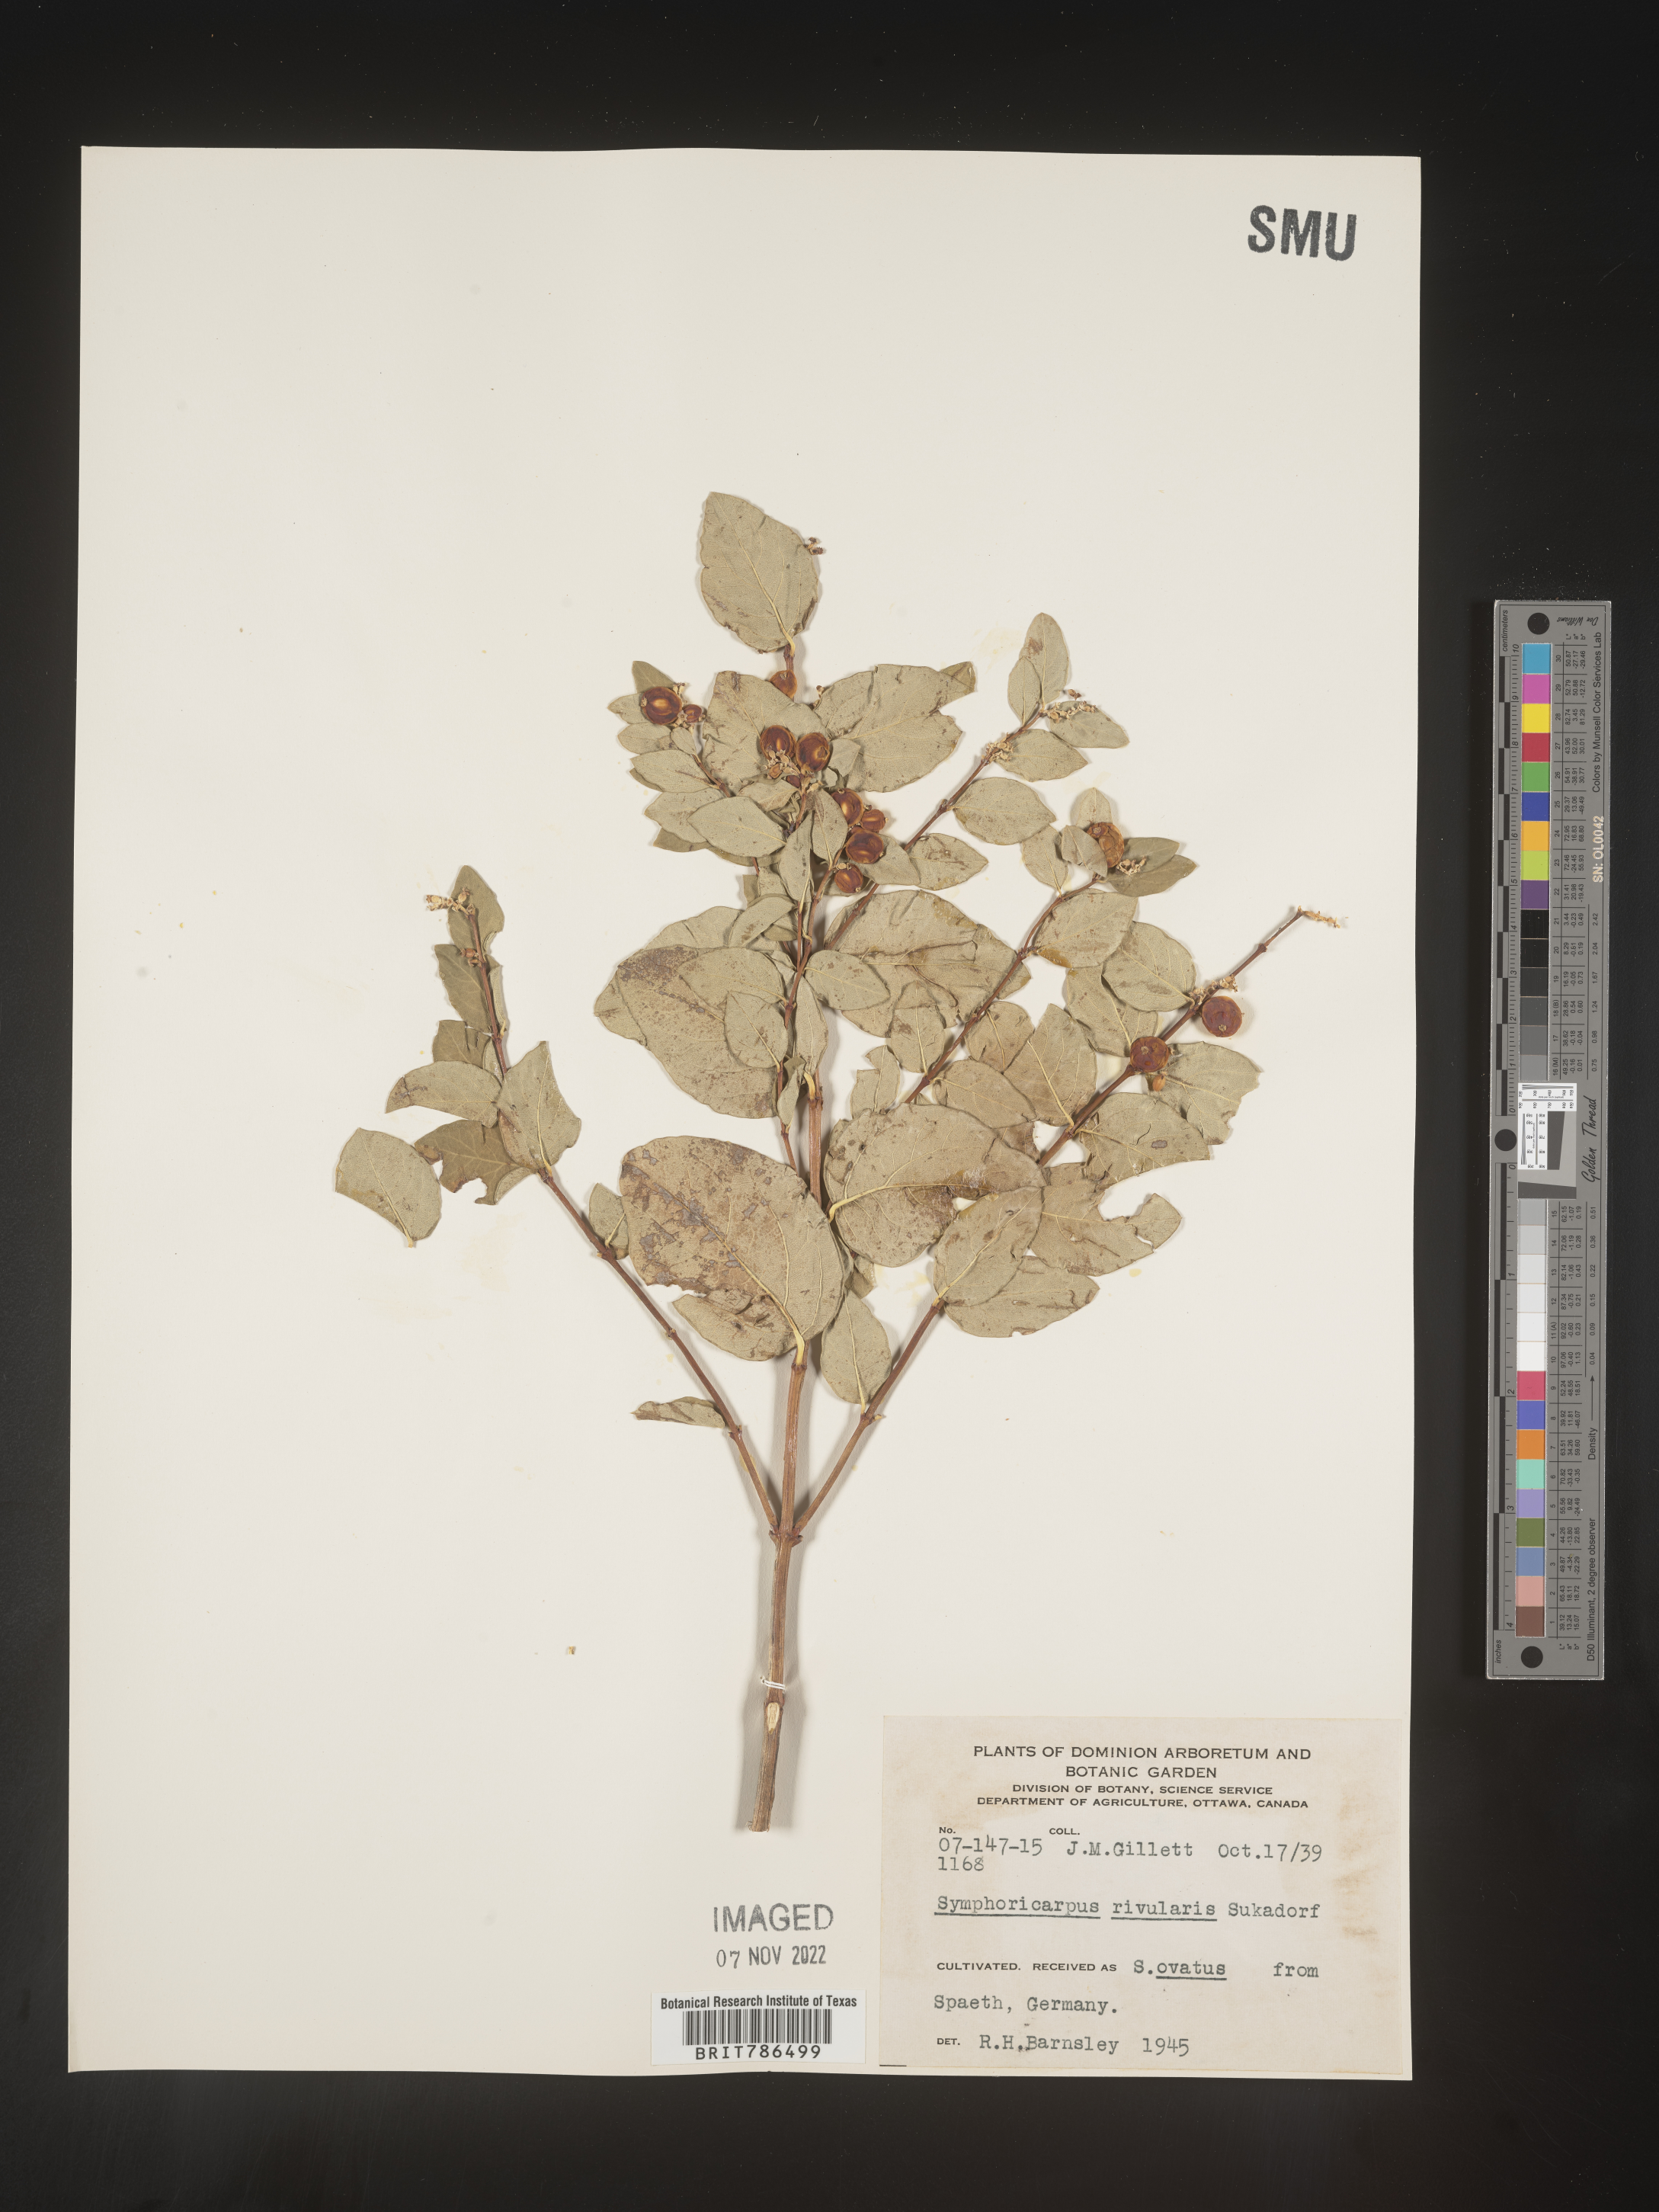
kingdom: Plantae
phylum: Tracheophyta
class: Magnoliopsida
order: Dipsacales
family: Caprifoliaceae
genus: Symphoricarpos
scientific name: Symphoricarpos
